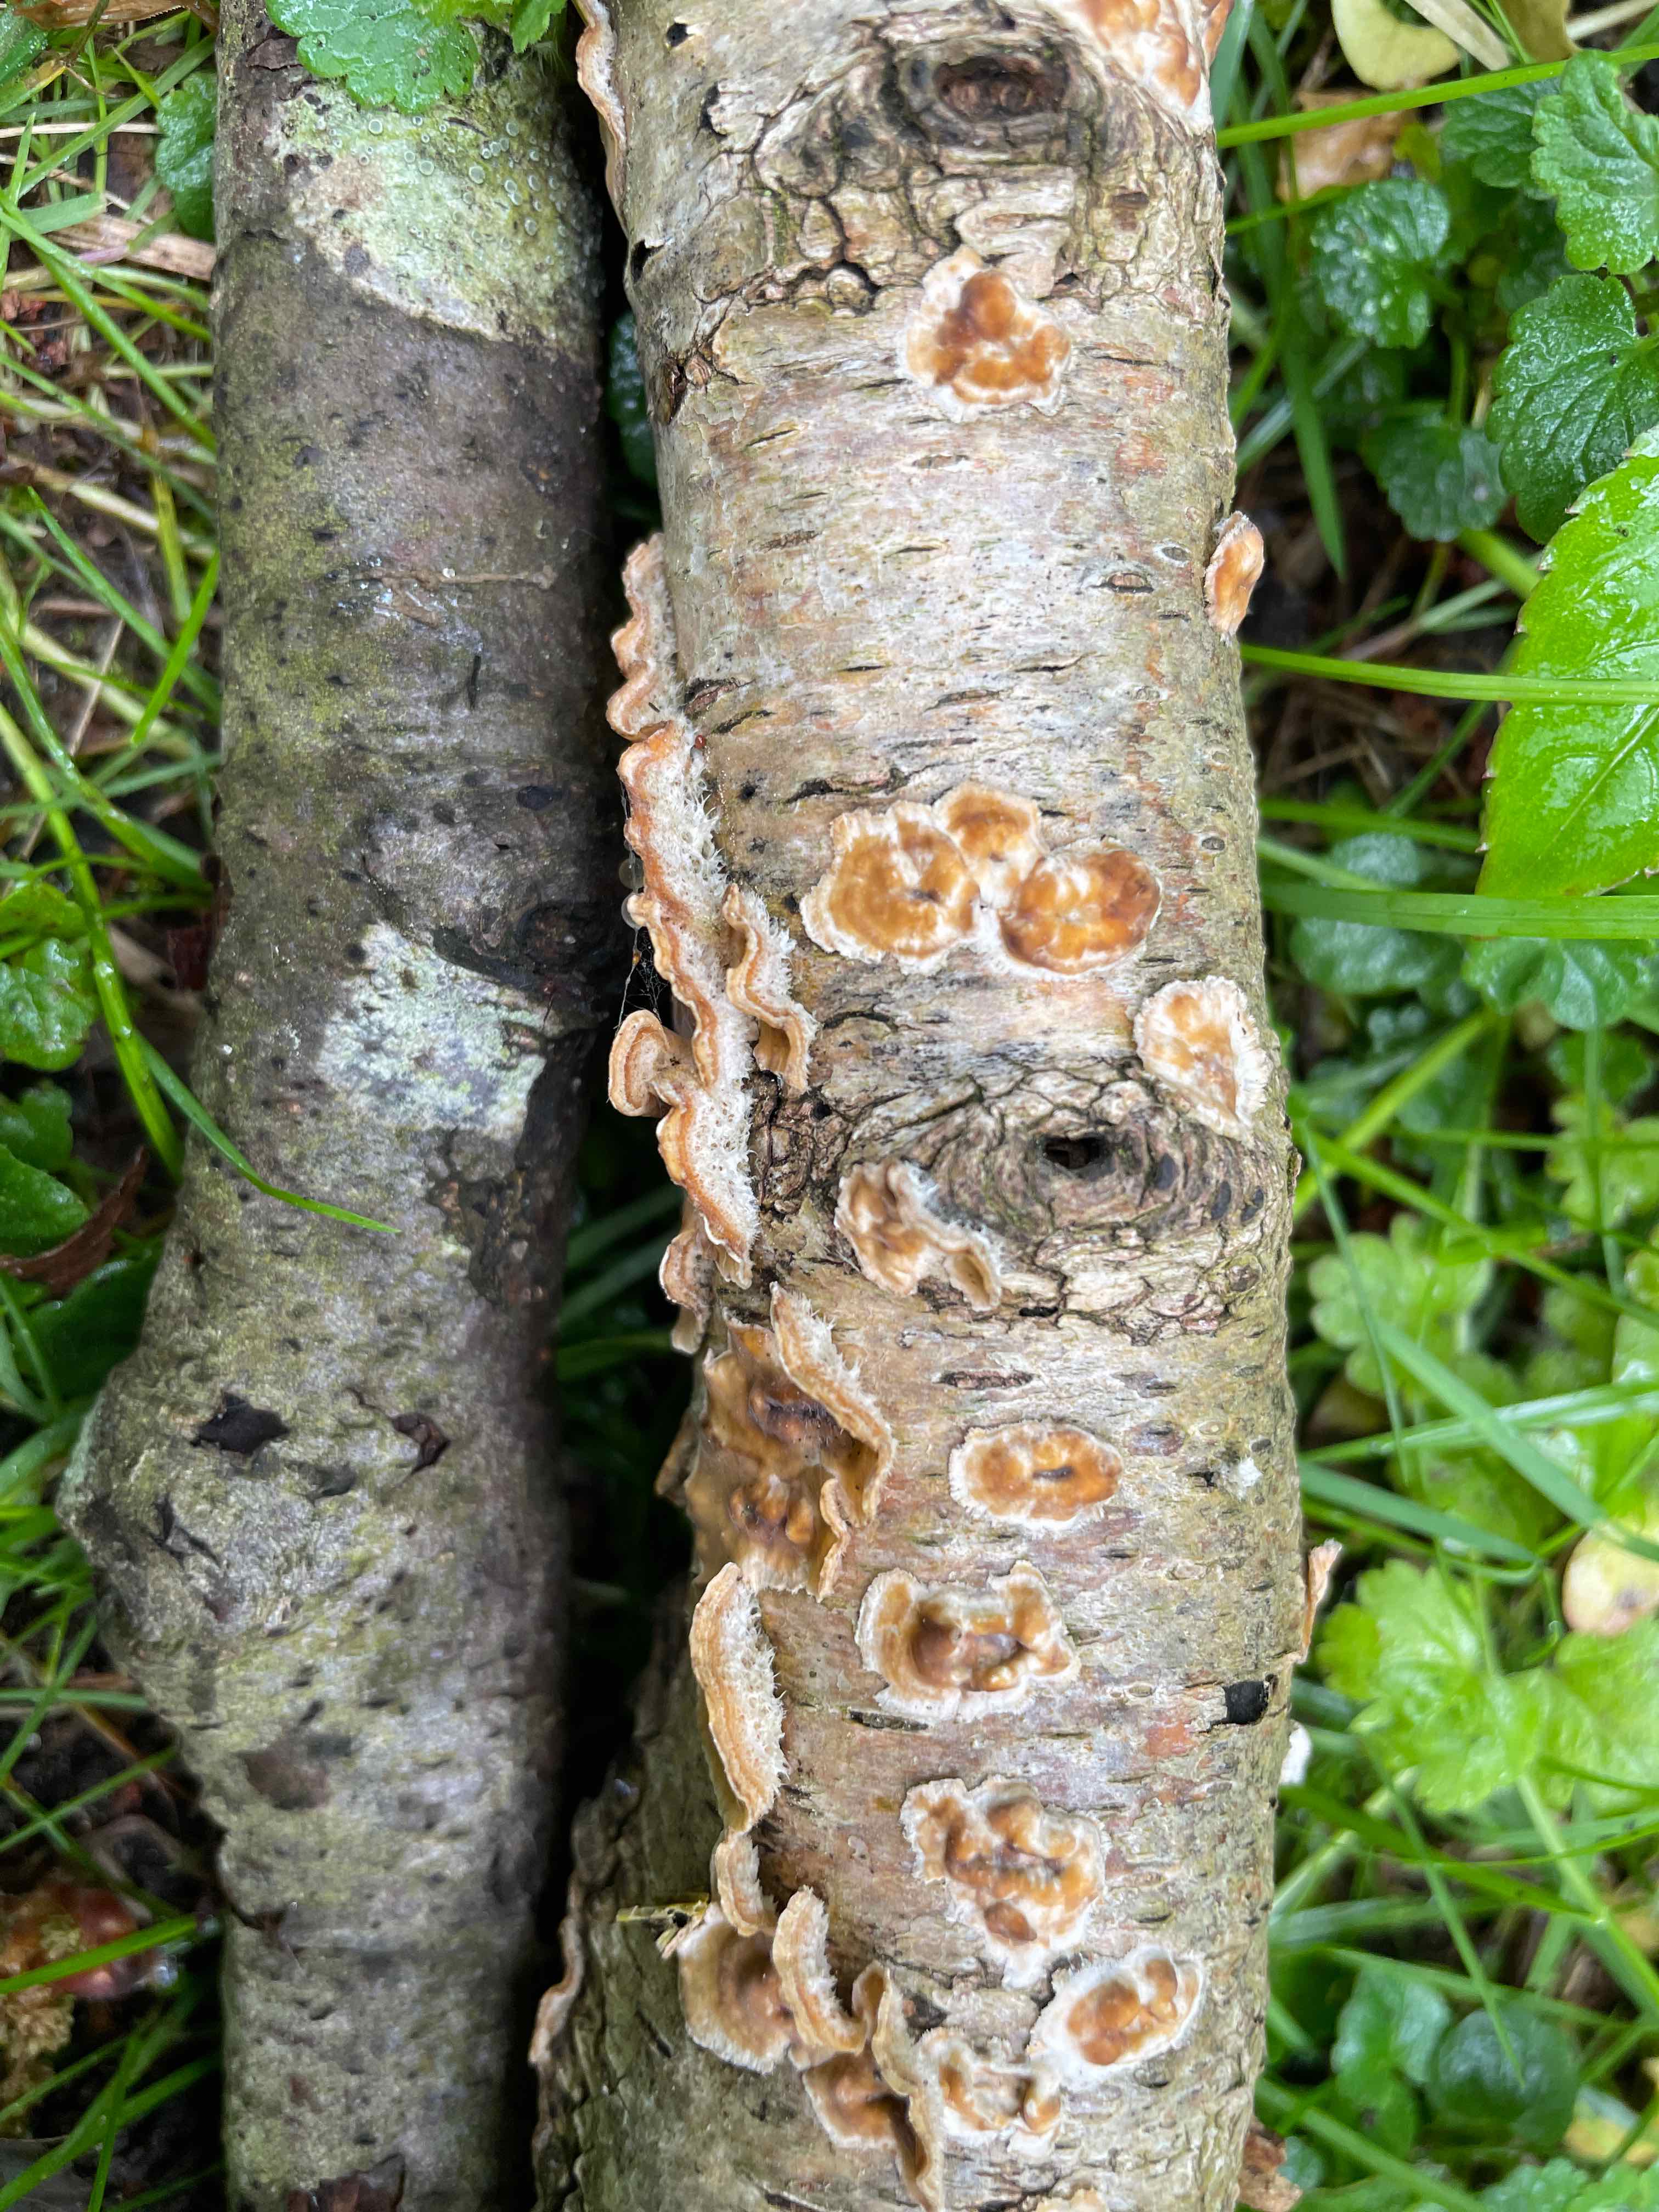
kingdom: Fungi
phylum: Basidiomycota
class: Agaricomycetes
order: Russulales
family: Stereaceae
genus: Stereum
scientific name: Stereum hirsutum
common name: håret lædersvamp
